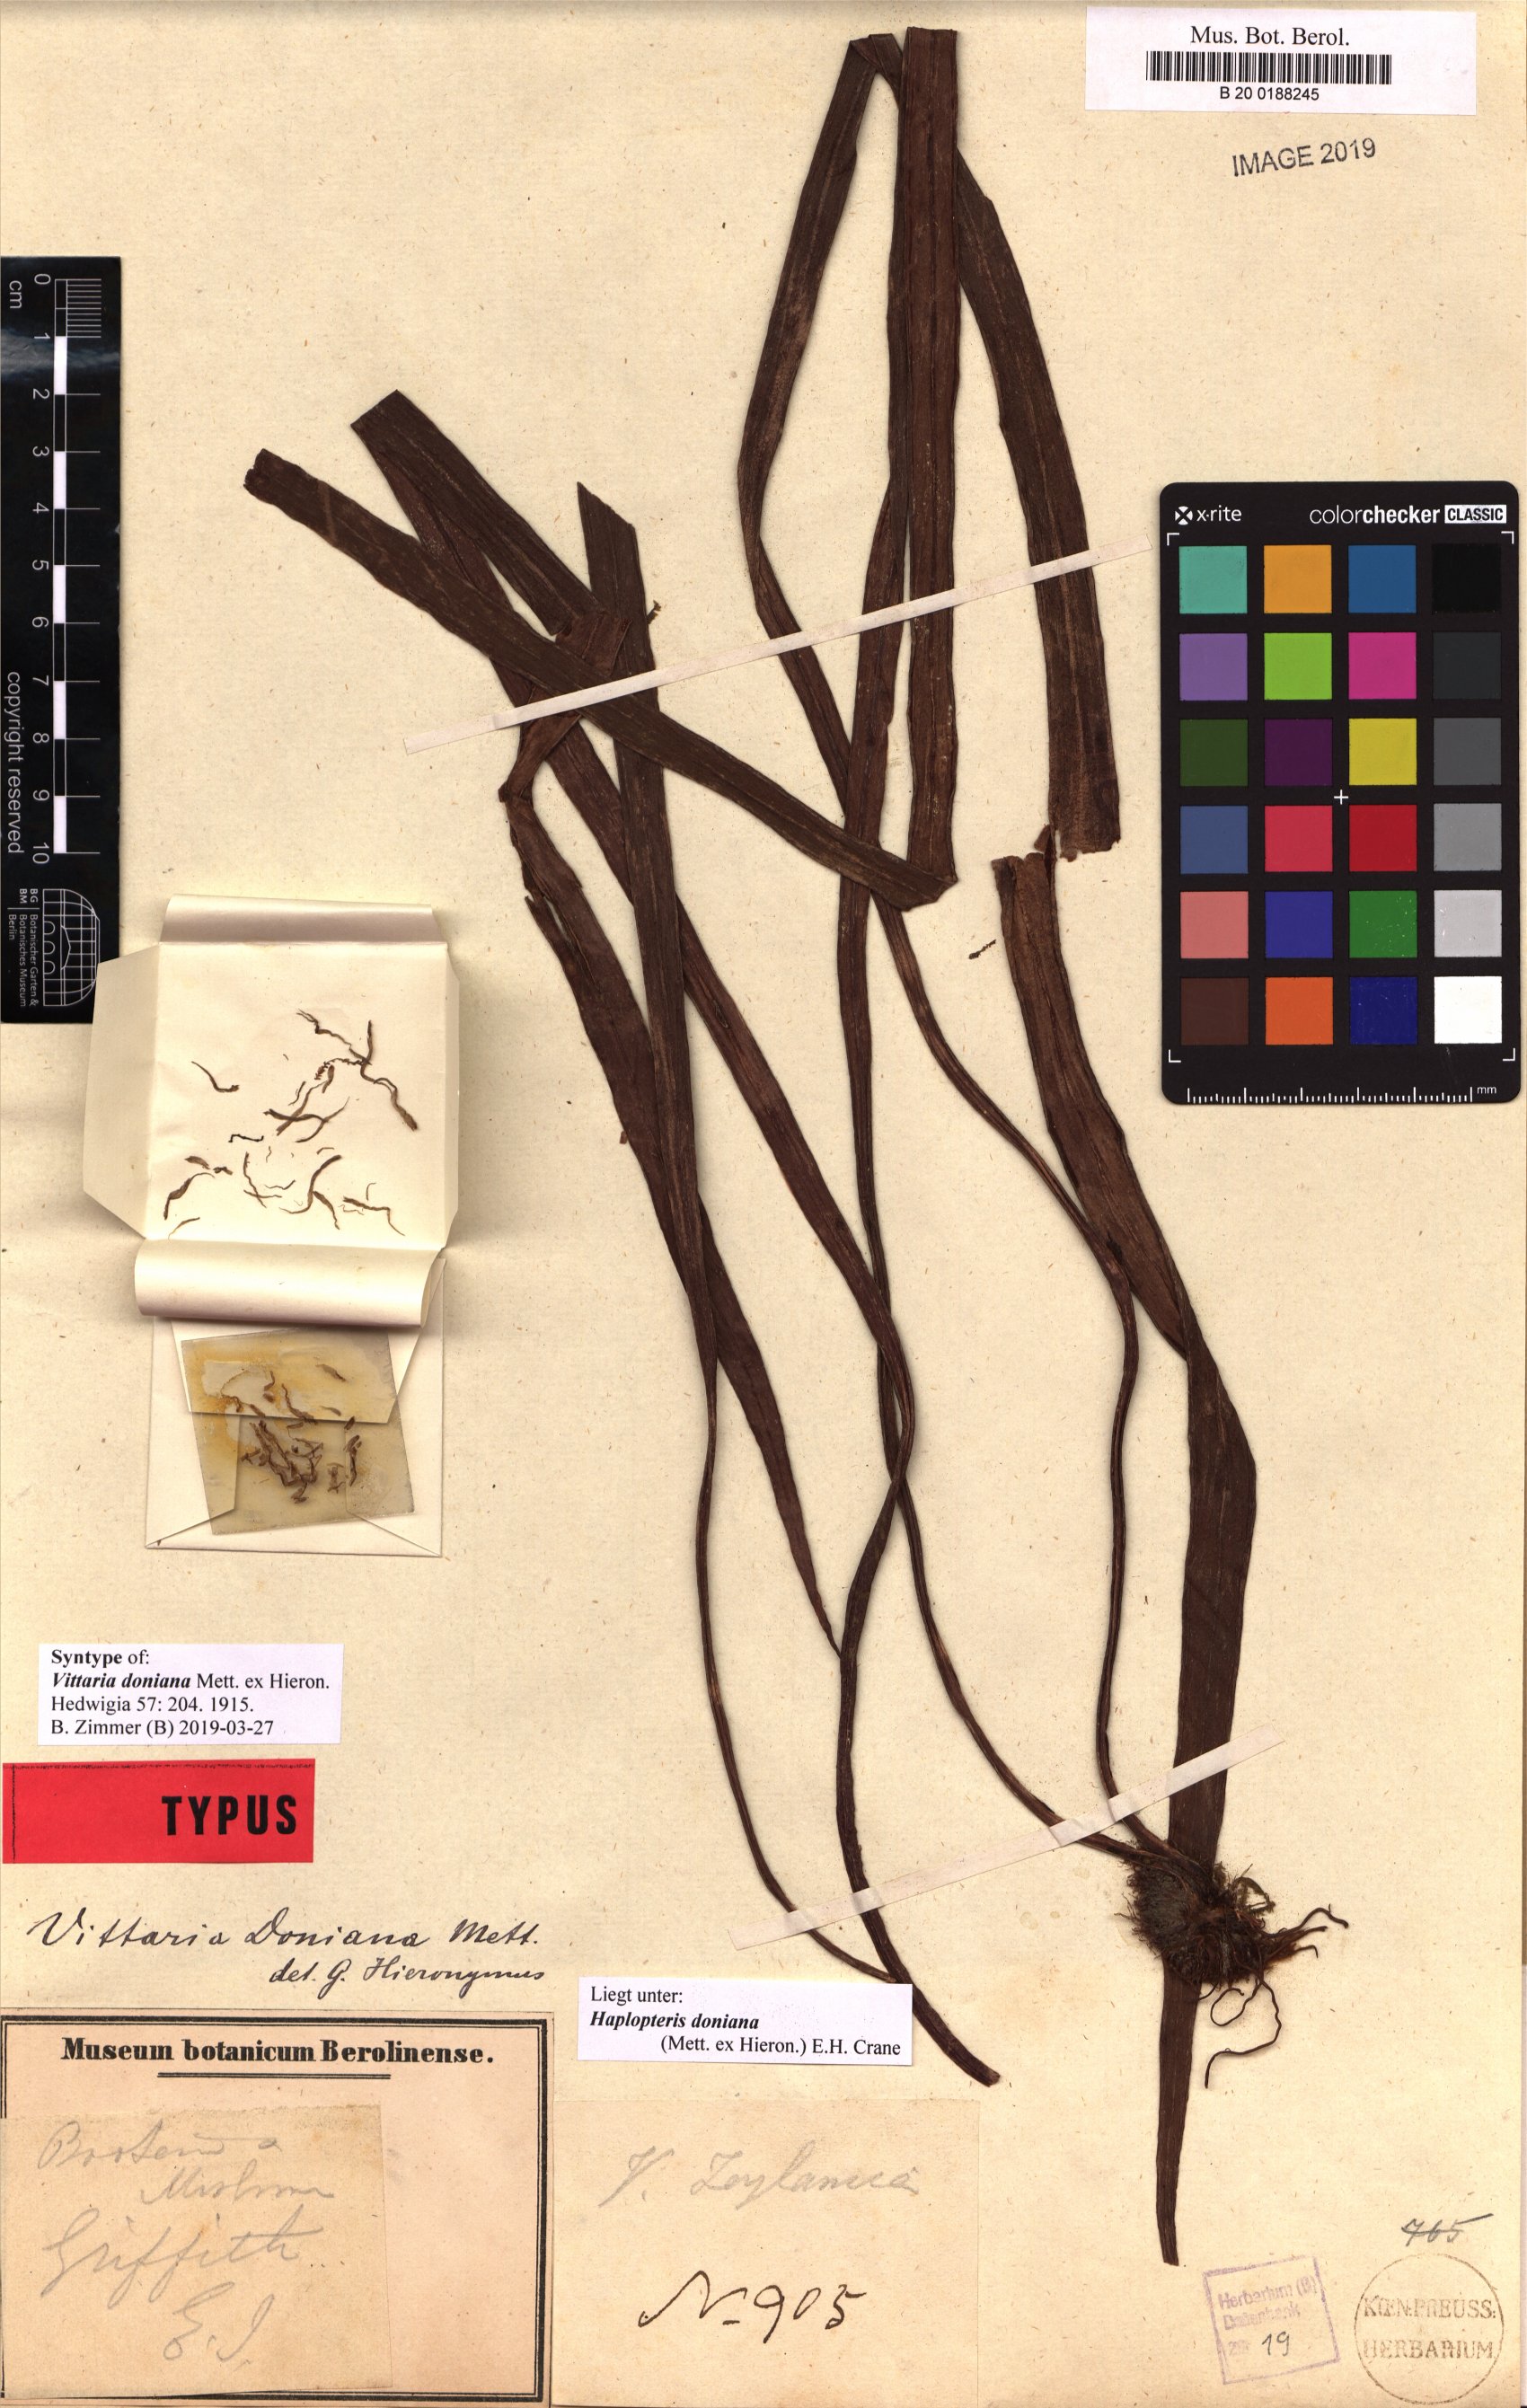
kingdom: Plantae
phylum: Tracheophyta
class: Polypodiopsida
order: Polypodiales
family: Pteridaceae
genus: Haplopteris
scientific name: Haplopteris taeniophylla
